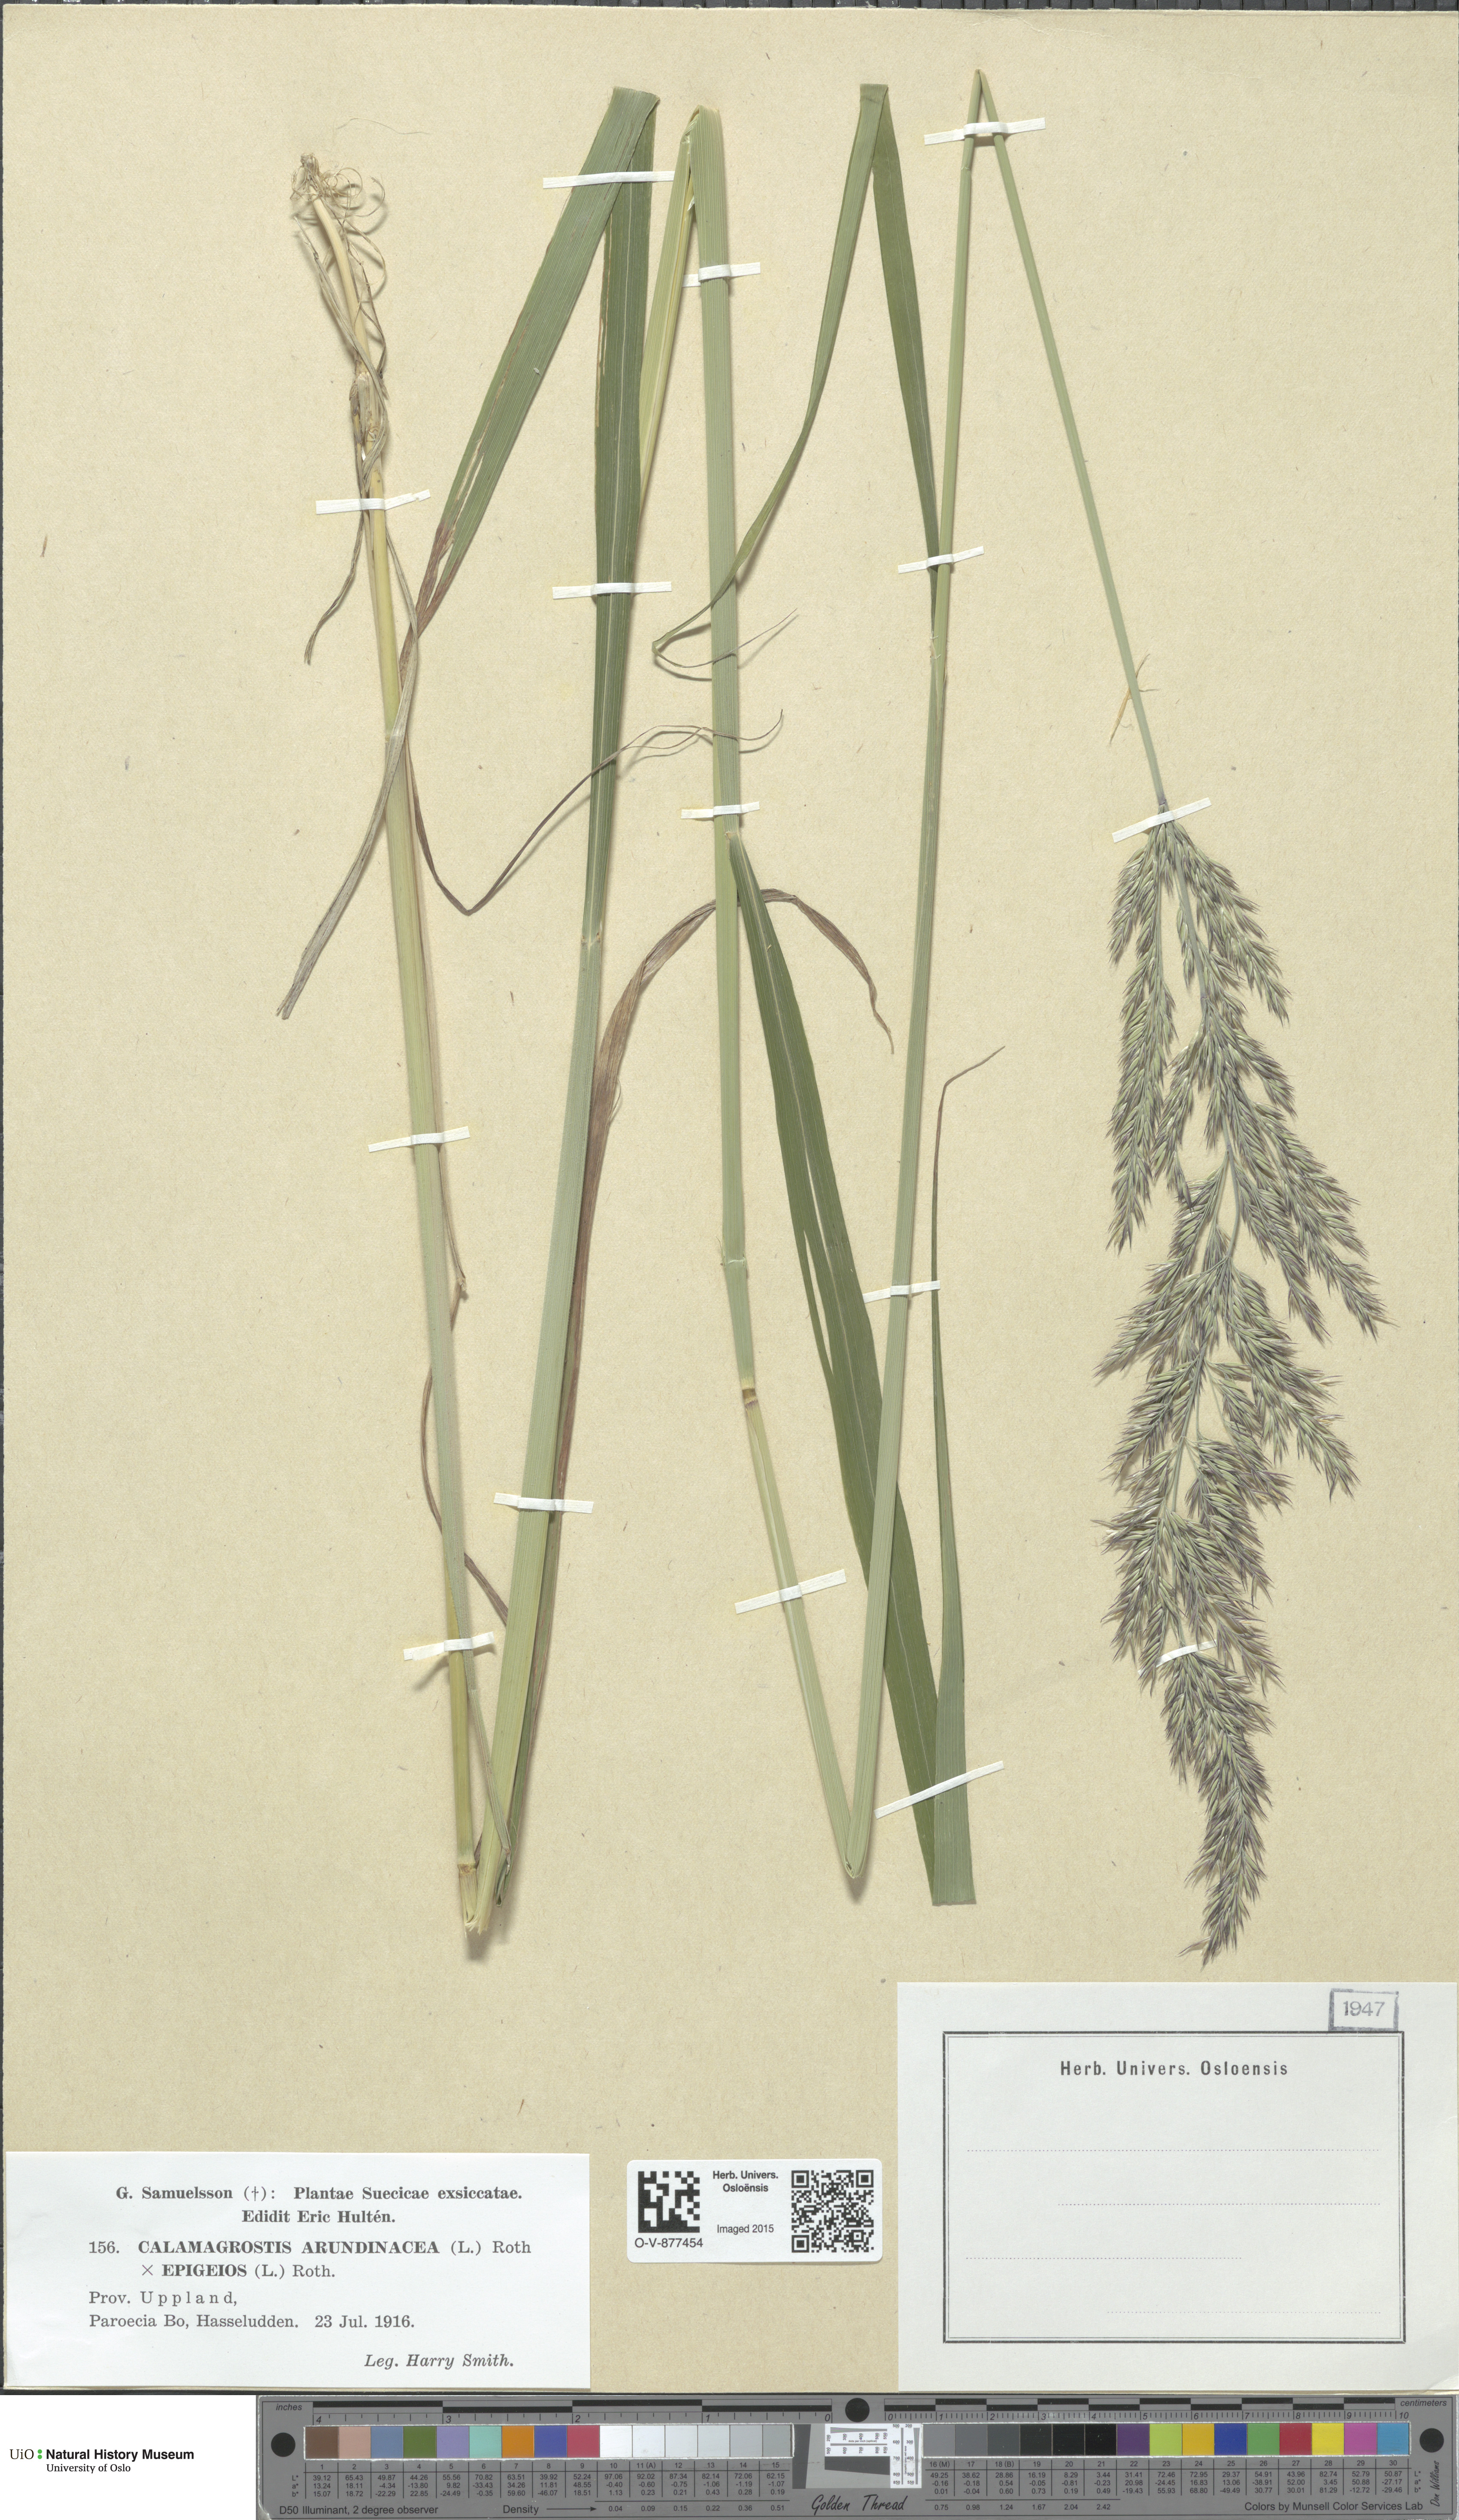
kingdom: Plantae
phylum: Tracheophyta
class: Liliopsida
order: Poales
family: Poaceae
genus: Calamagrostis
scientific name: Calamagrostis
